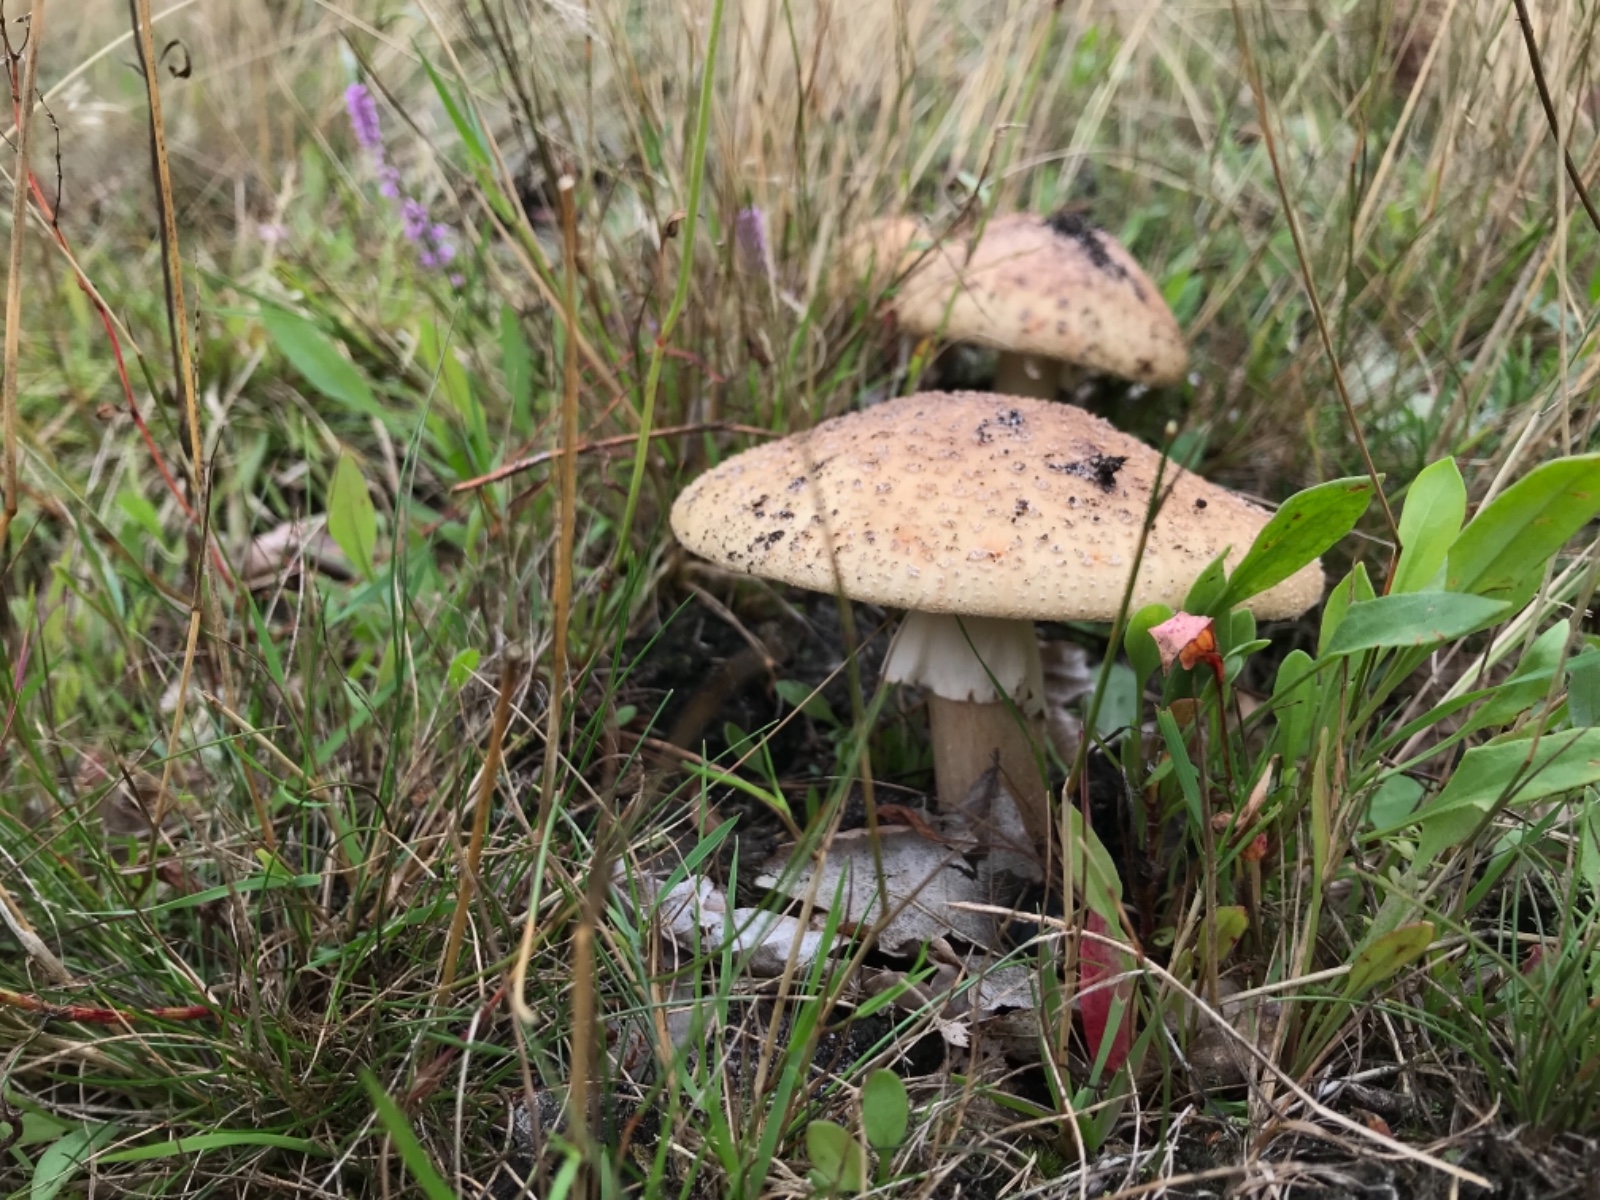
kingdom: Fungi
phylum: Basidiomycota
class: Agaricomycetes
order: Agaricales
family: Amanitaceae
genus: Amanita
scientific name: Amanita rubescens
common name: rødmende fluesvamp
